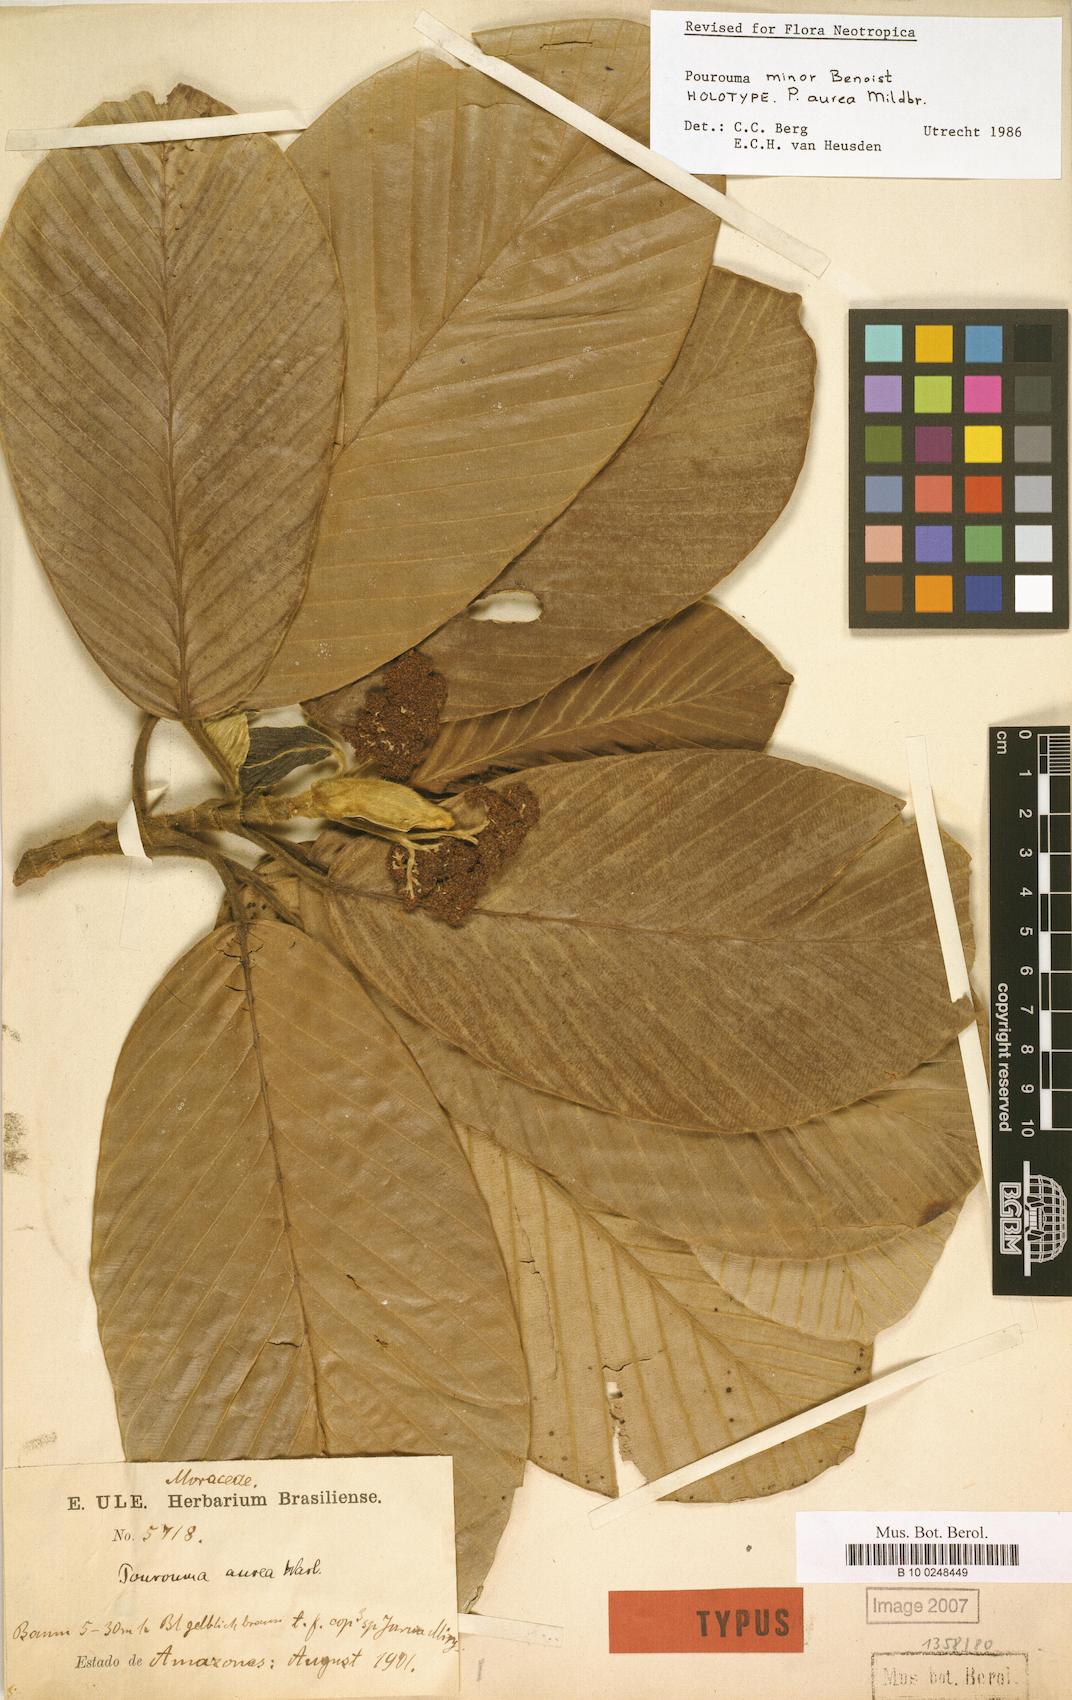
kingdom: Plantae
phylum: Tracheophyta
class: Magnoliopsida
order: Rosales
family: Urticaceae
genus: Pourouma
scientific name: Pourouma minor
